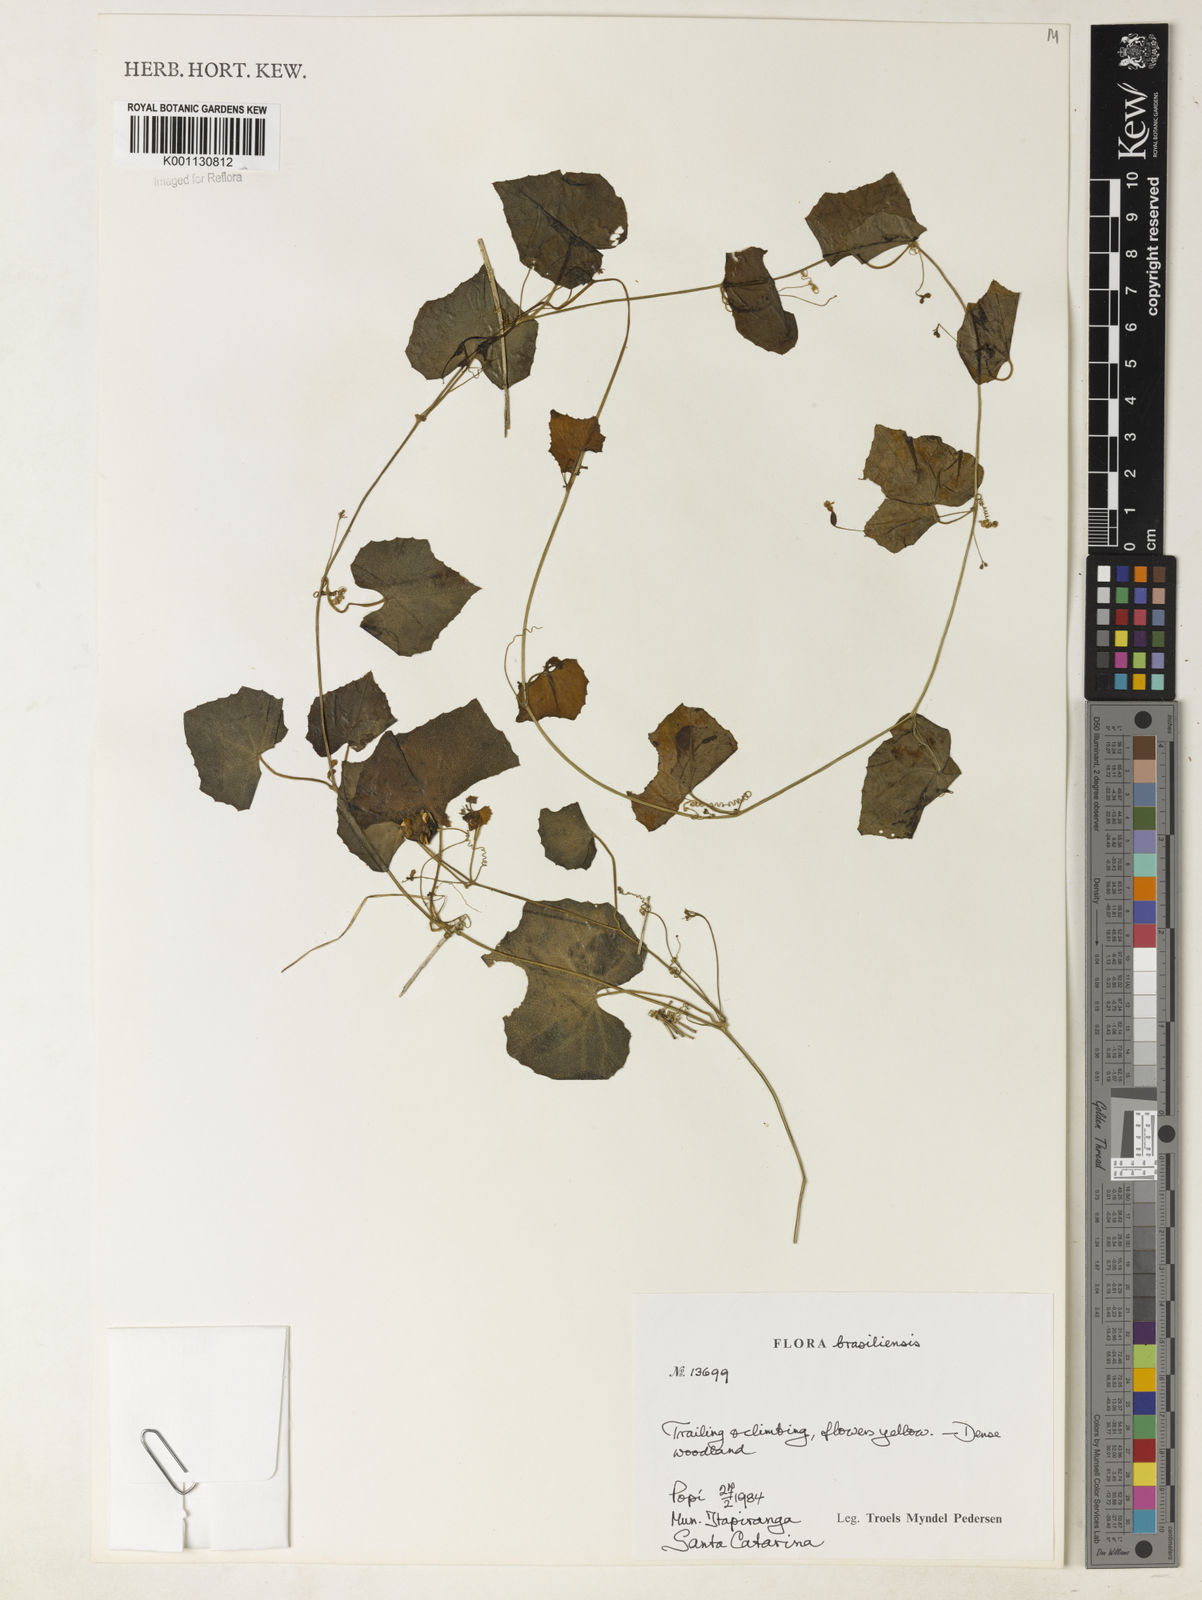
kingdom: Plantae
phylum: Tracheophyta
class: Magnoliopsida
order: Cucurbitales
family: Cucurbitaceae
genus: Melothria
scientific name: Melothria pendula
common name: Creeping-cucumber
